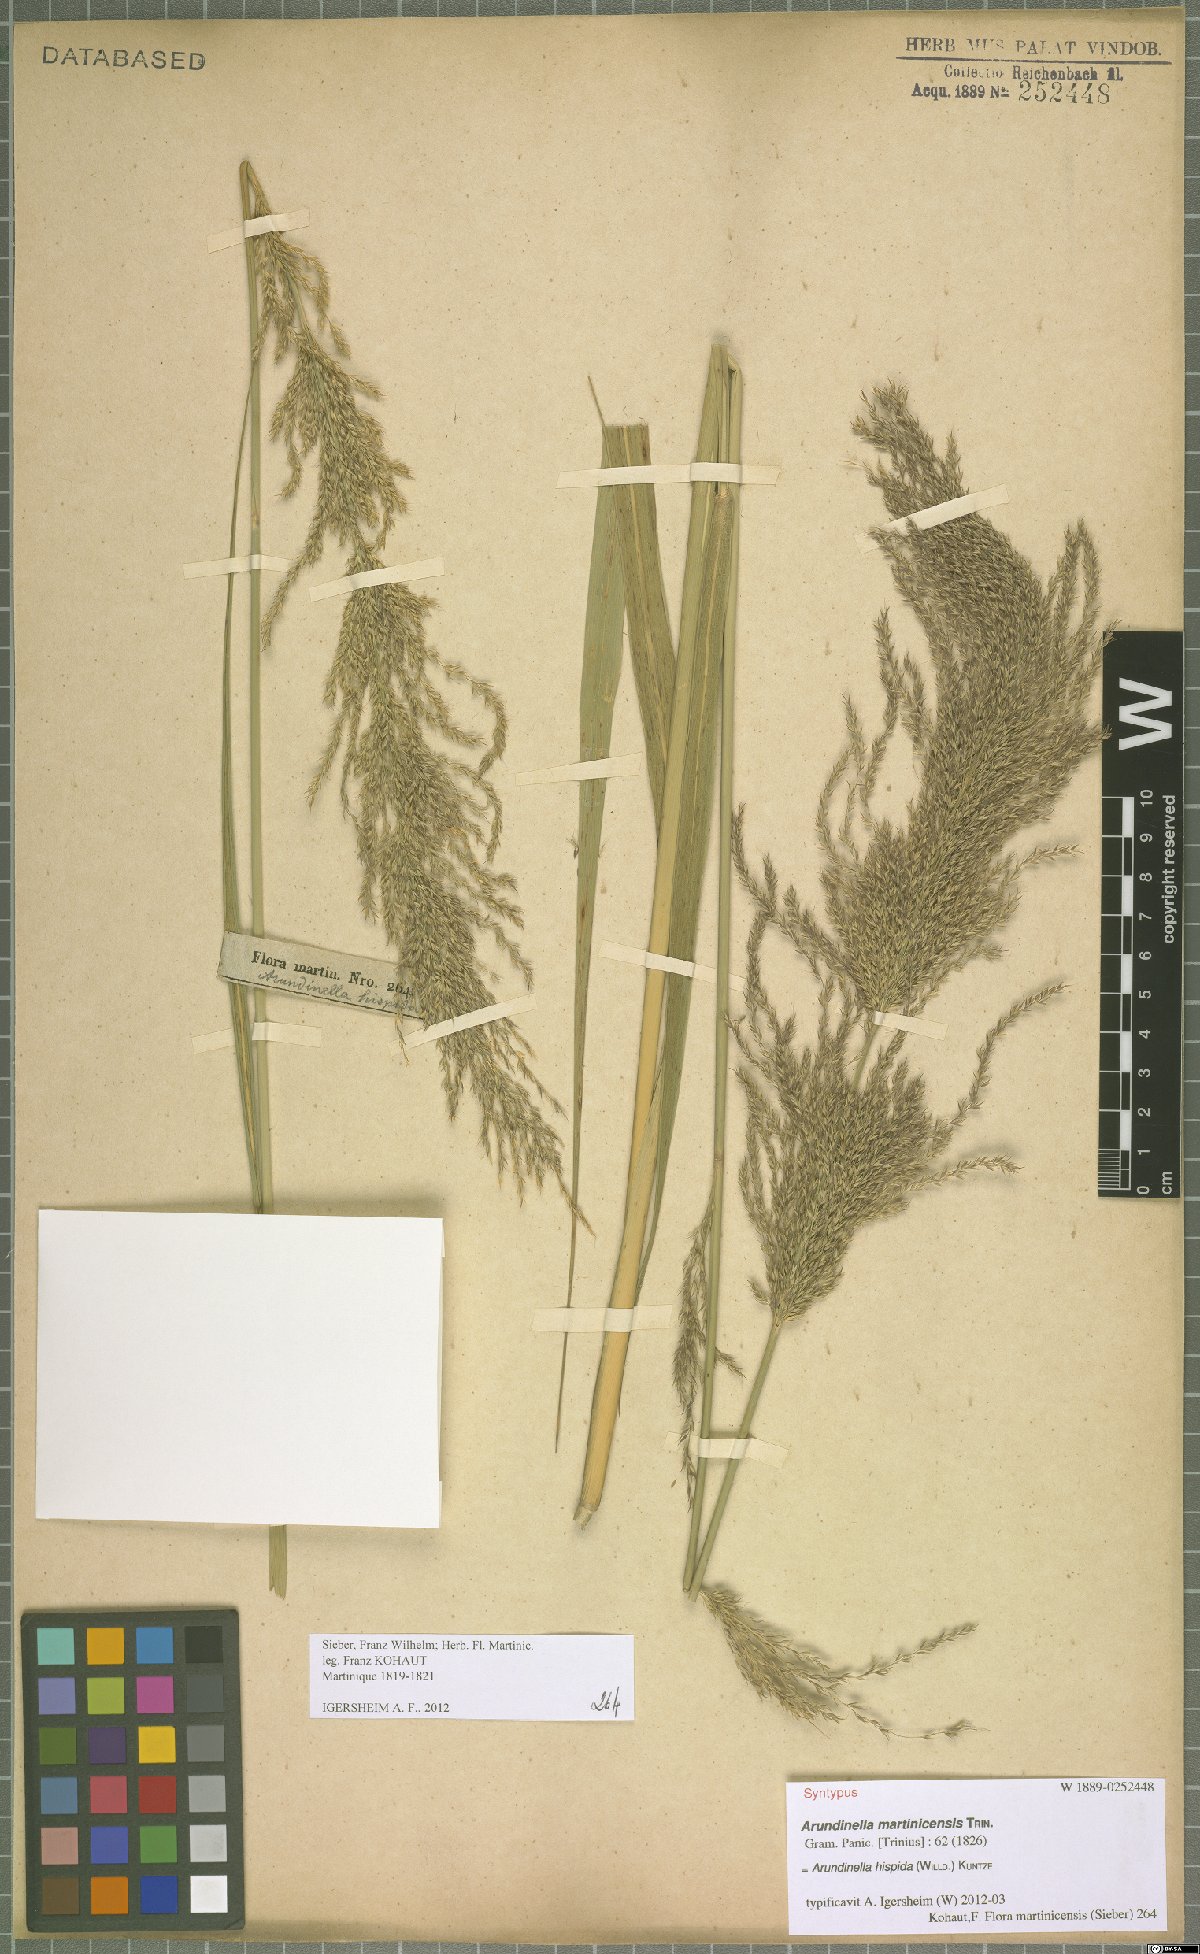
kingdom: Plantae
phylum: Tracheophyta
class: Liliopsida
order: Poales
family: Poaceae
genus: Arundinella
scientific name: Arundinella hispida
